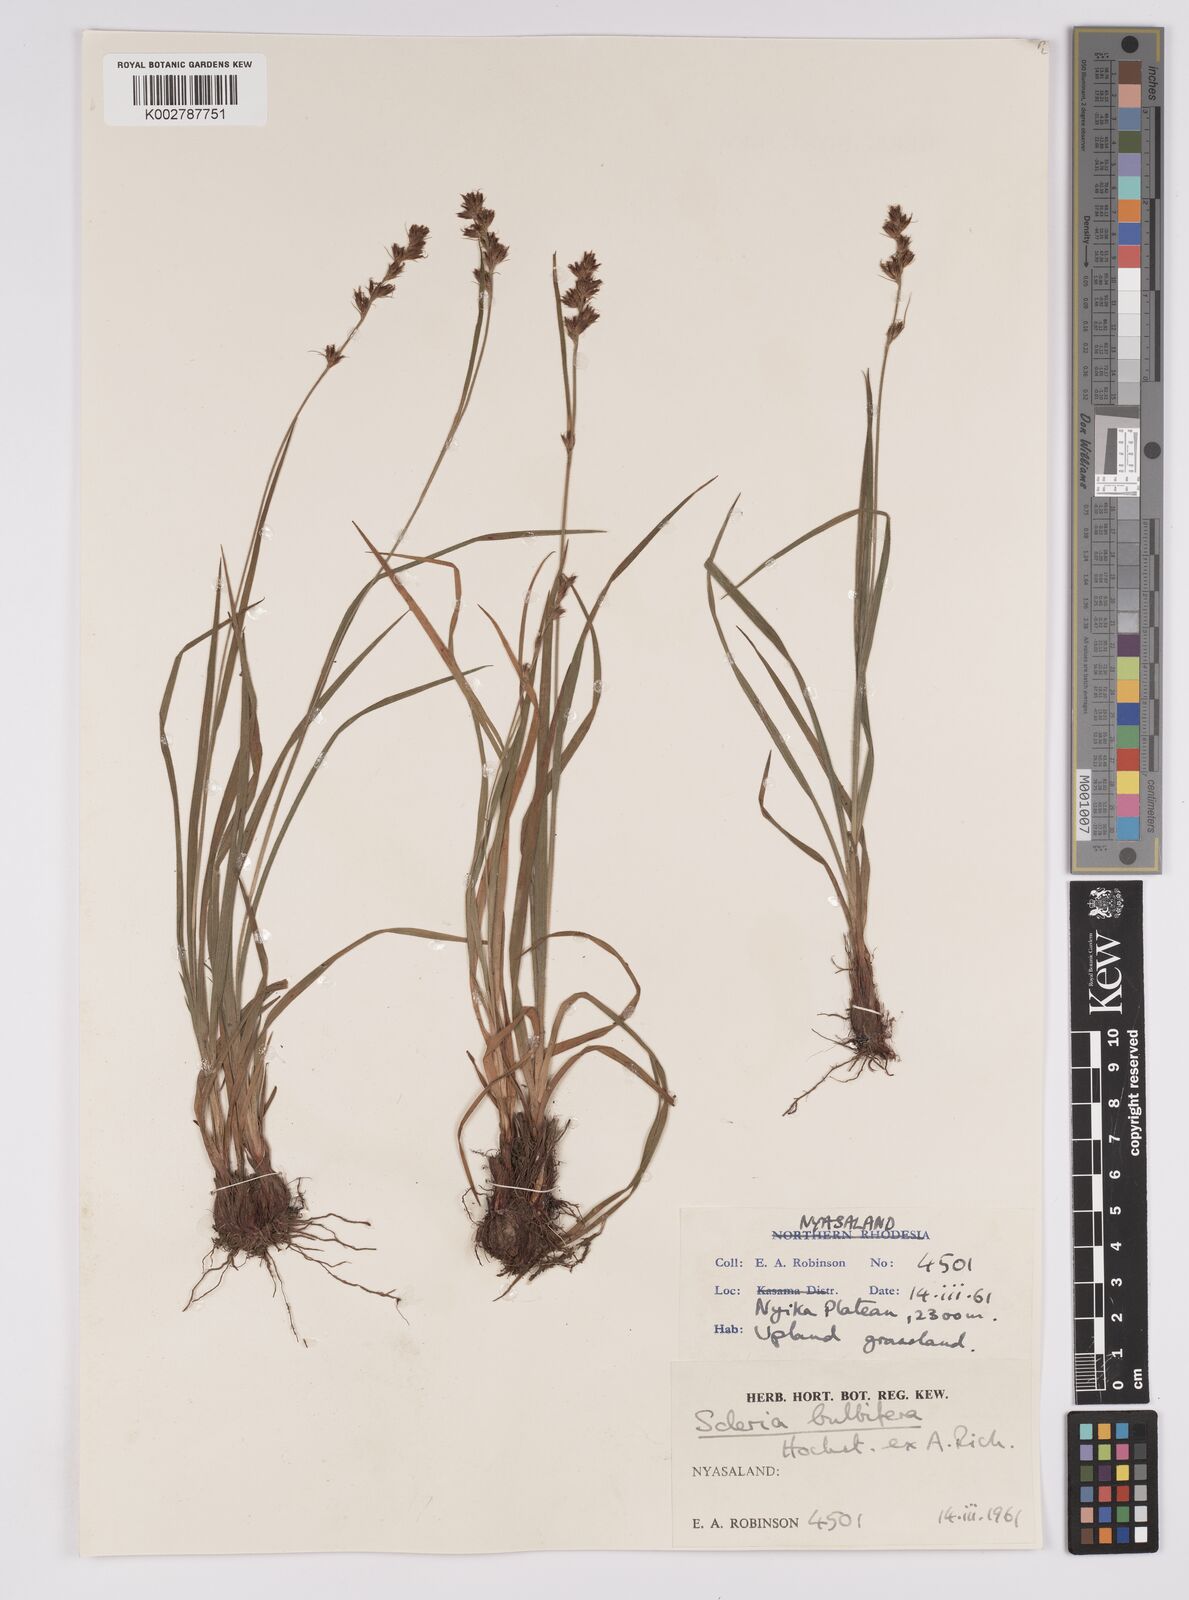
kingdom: Plantae
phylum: Tracheophyta
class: Liliopsida
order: Poales
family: Cyperaceae
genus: Scleria
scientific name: Scleria bulbifera
